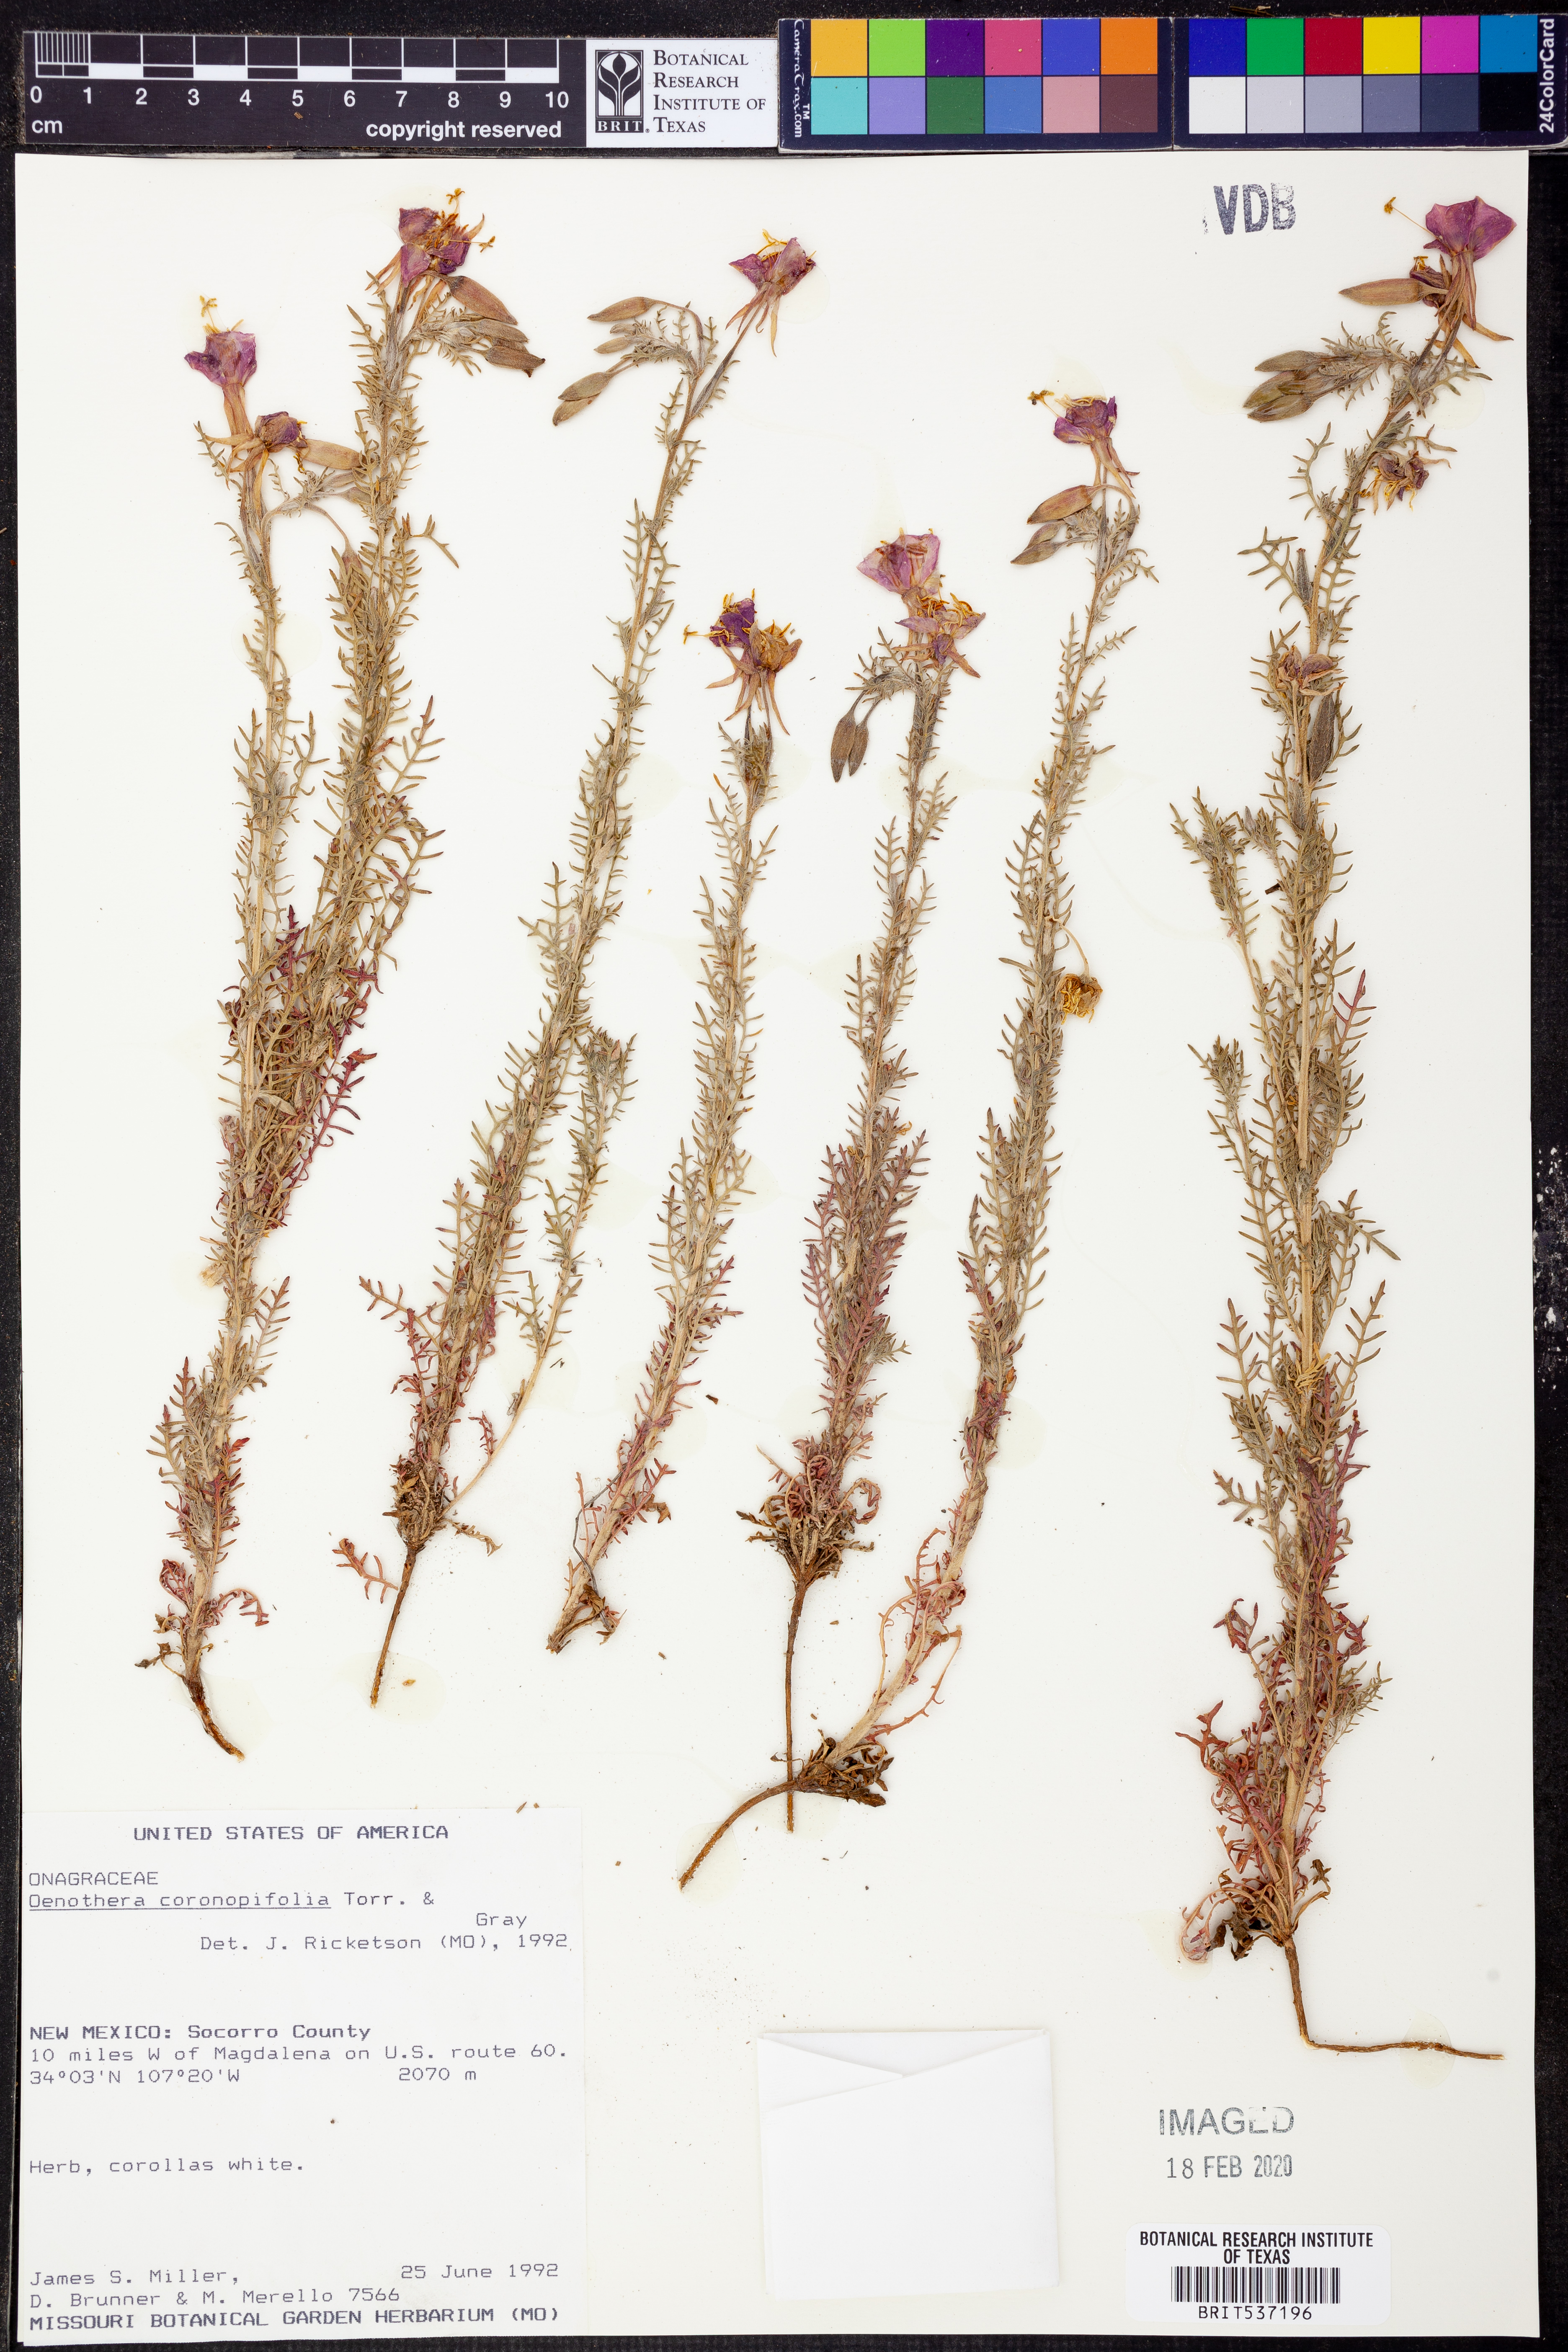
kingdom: Plantae
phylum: Tracheophyta
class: Magnoliopsida
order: Myrtales
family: Onagraceae
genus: Oenothera
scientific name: Oenothera coronopifolia
